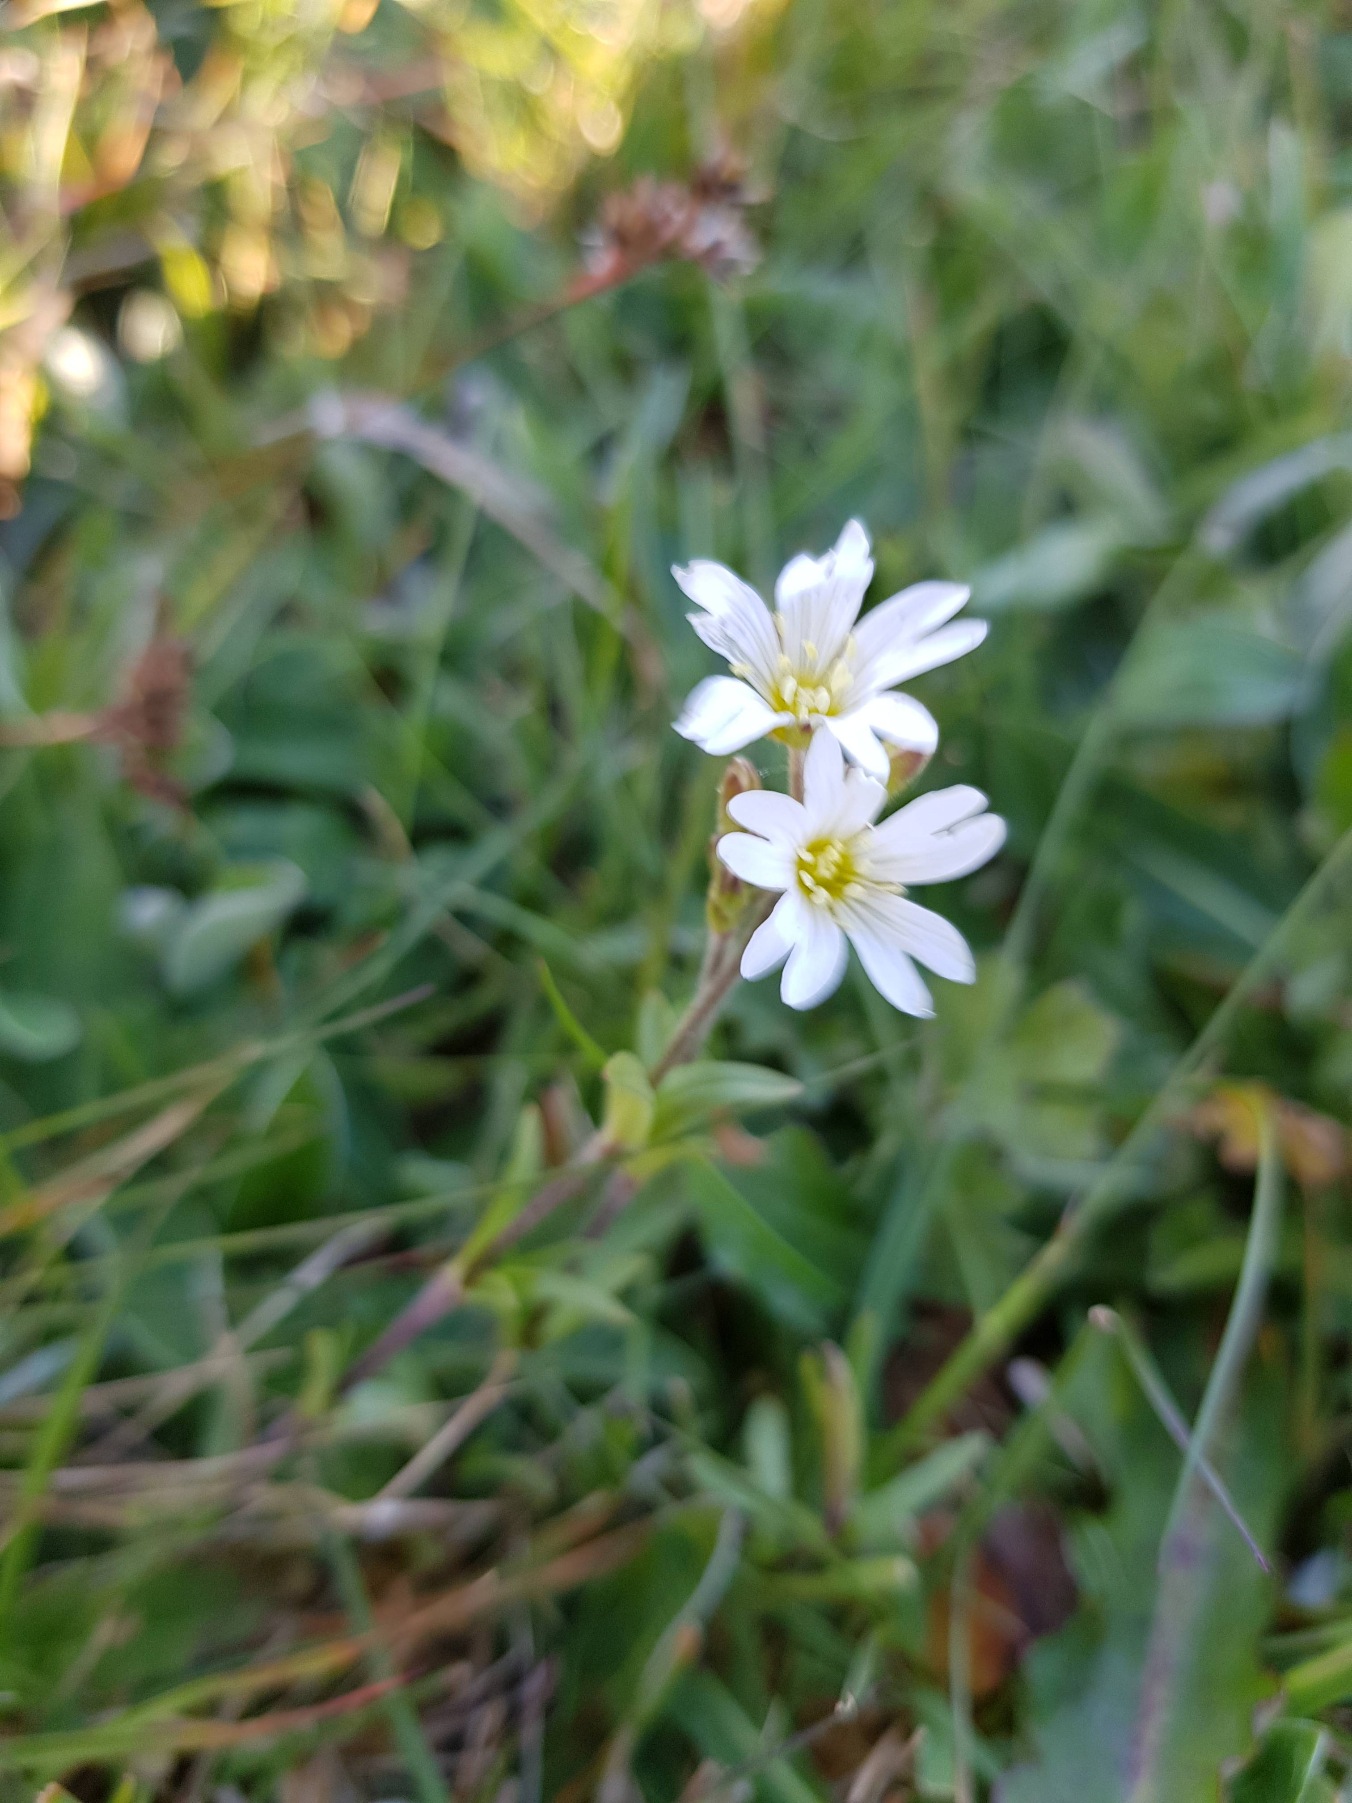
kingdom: Plantae
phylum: Tracheophyta
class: Magnoliopsida
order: Caryophyllales
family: Caryophyllaceae
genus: Cerastium
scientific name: Cerastium arvense
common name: Storblomstret hønsetarm
